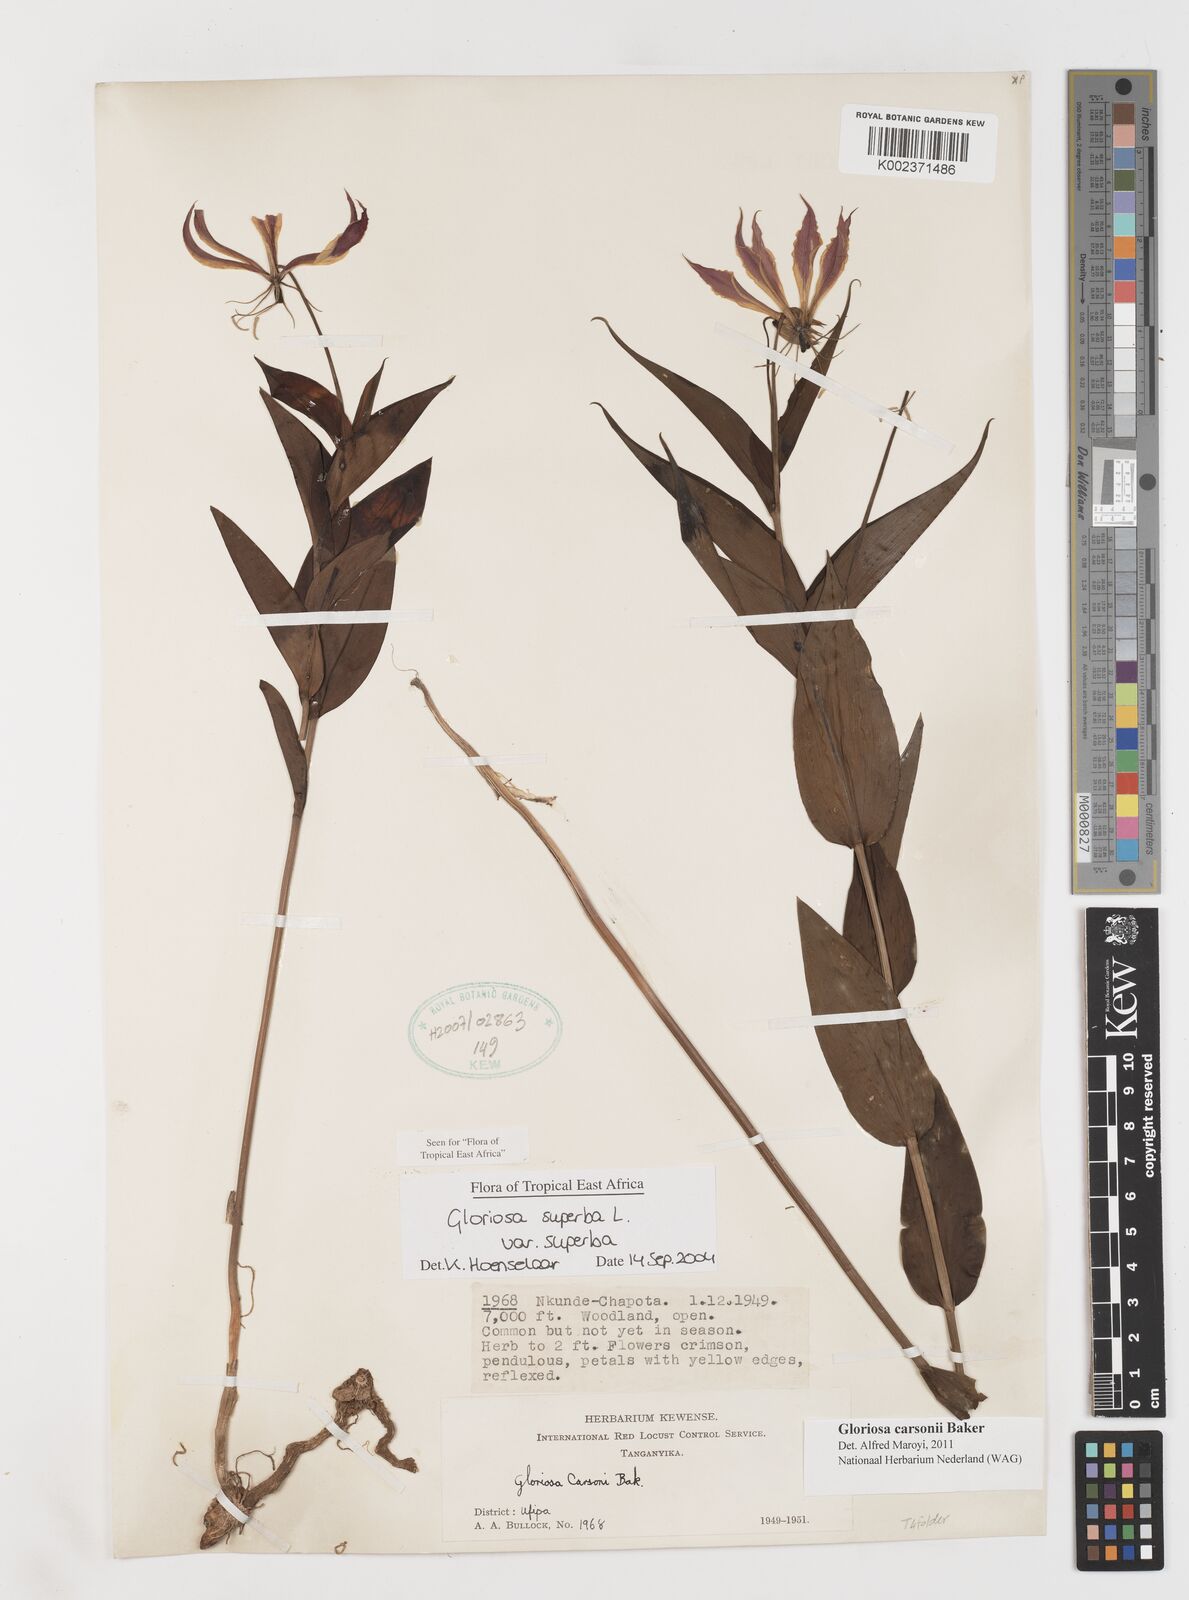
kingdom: Plantae
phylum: Tracheophyta
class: Liliopsida
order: Liliales
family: Colchicaceae
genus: Gloriosa
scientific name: Gloriosa carsonii
